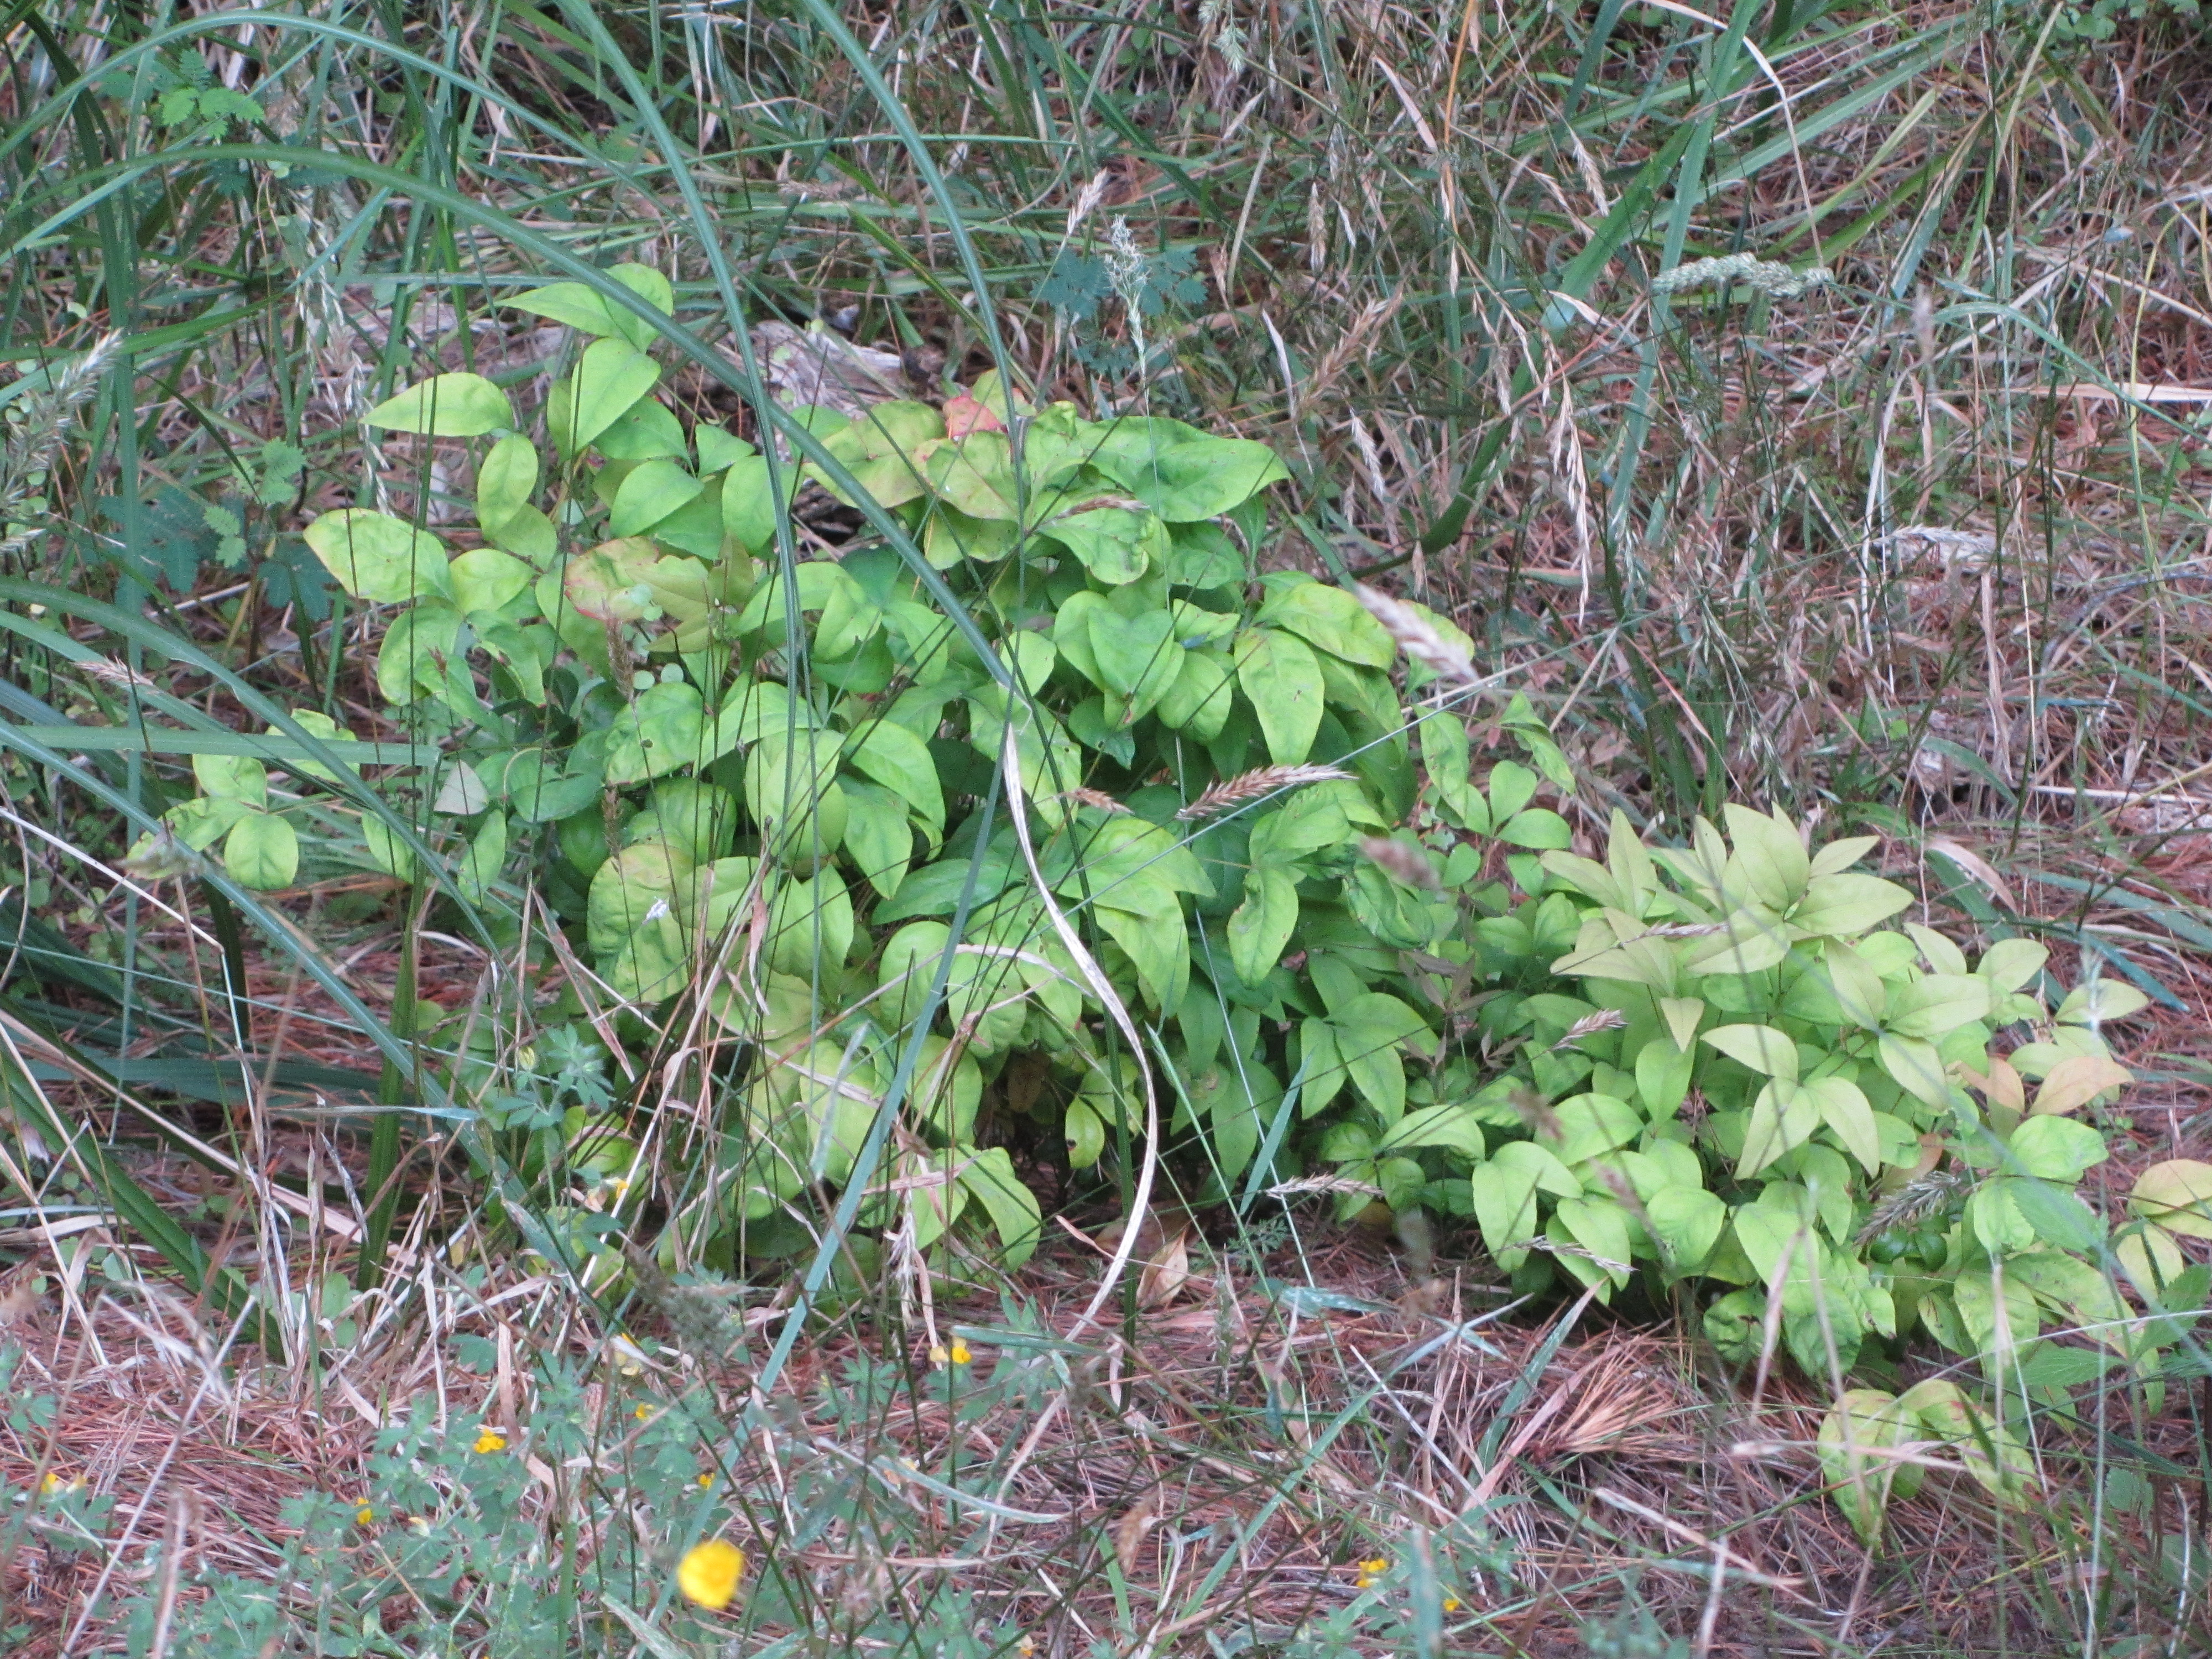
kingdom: Plantae
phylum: Tracheophyta
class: Magnoliopsida
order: Ranunculales
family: Berberidaceae
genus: Nandina
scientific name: Nandina domestica
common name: Sacred bamboo
